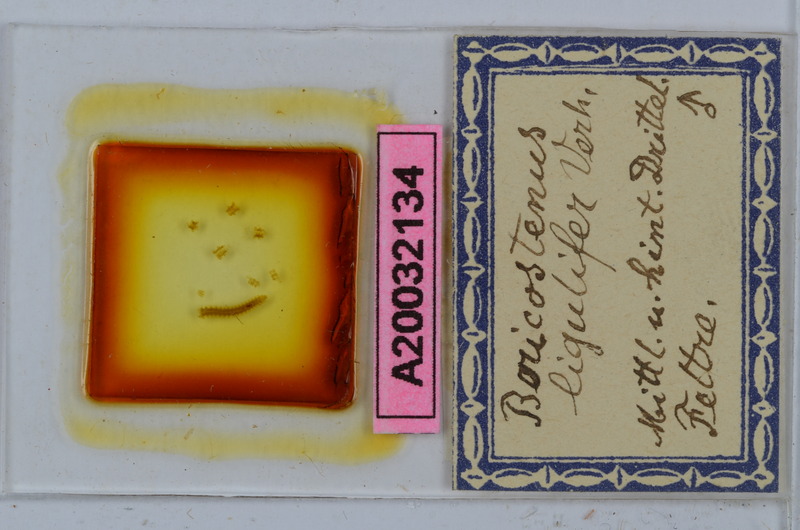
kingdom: Animalia
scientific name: Animalia
